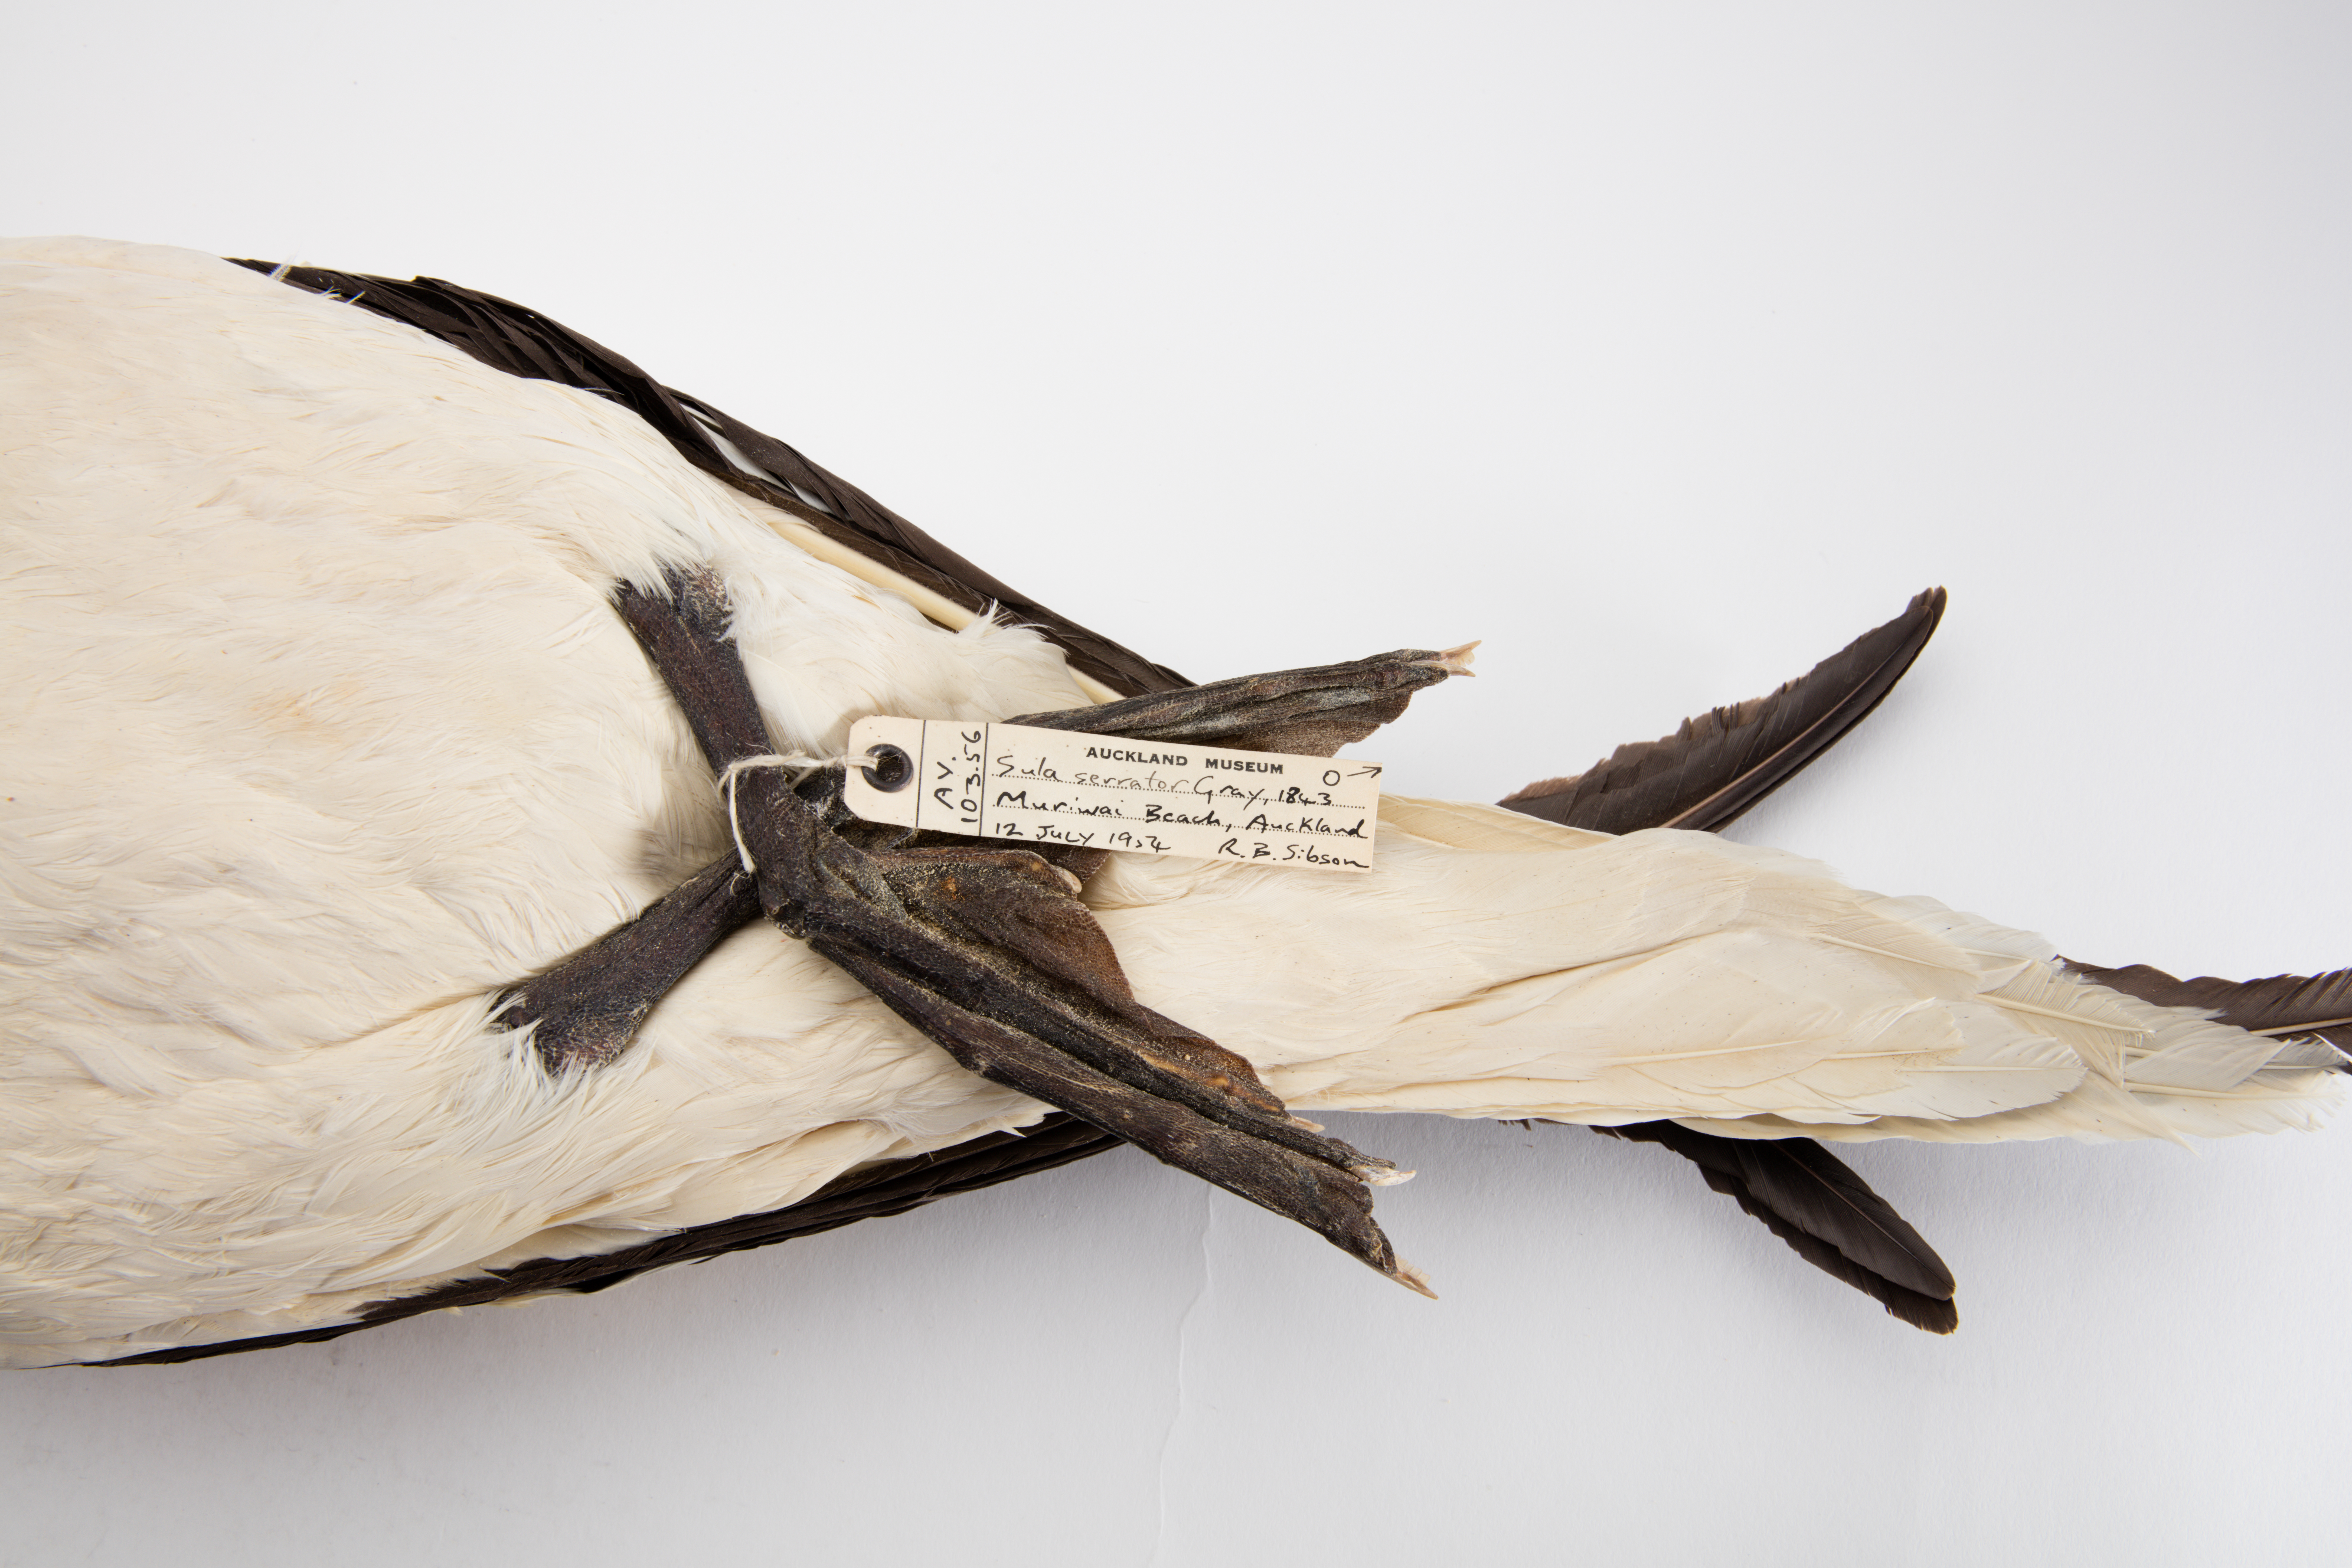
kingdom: Animalia
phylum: Chordata
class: Aves
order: Suliformes
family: Sulidae
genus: Morus
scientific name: Morus serrator
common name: Australasian gannet
